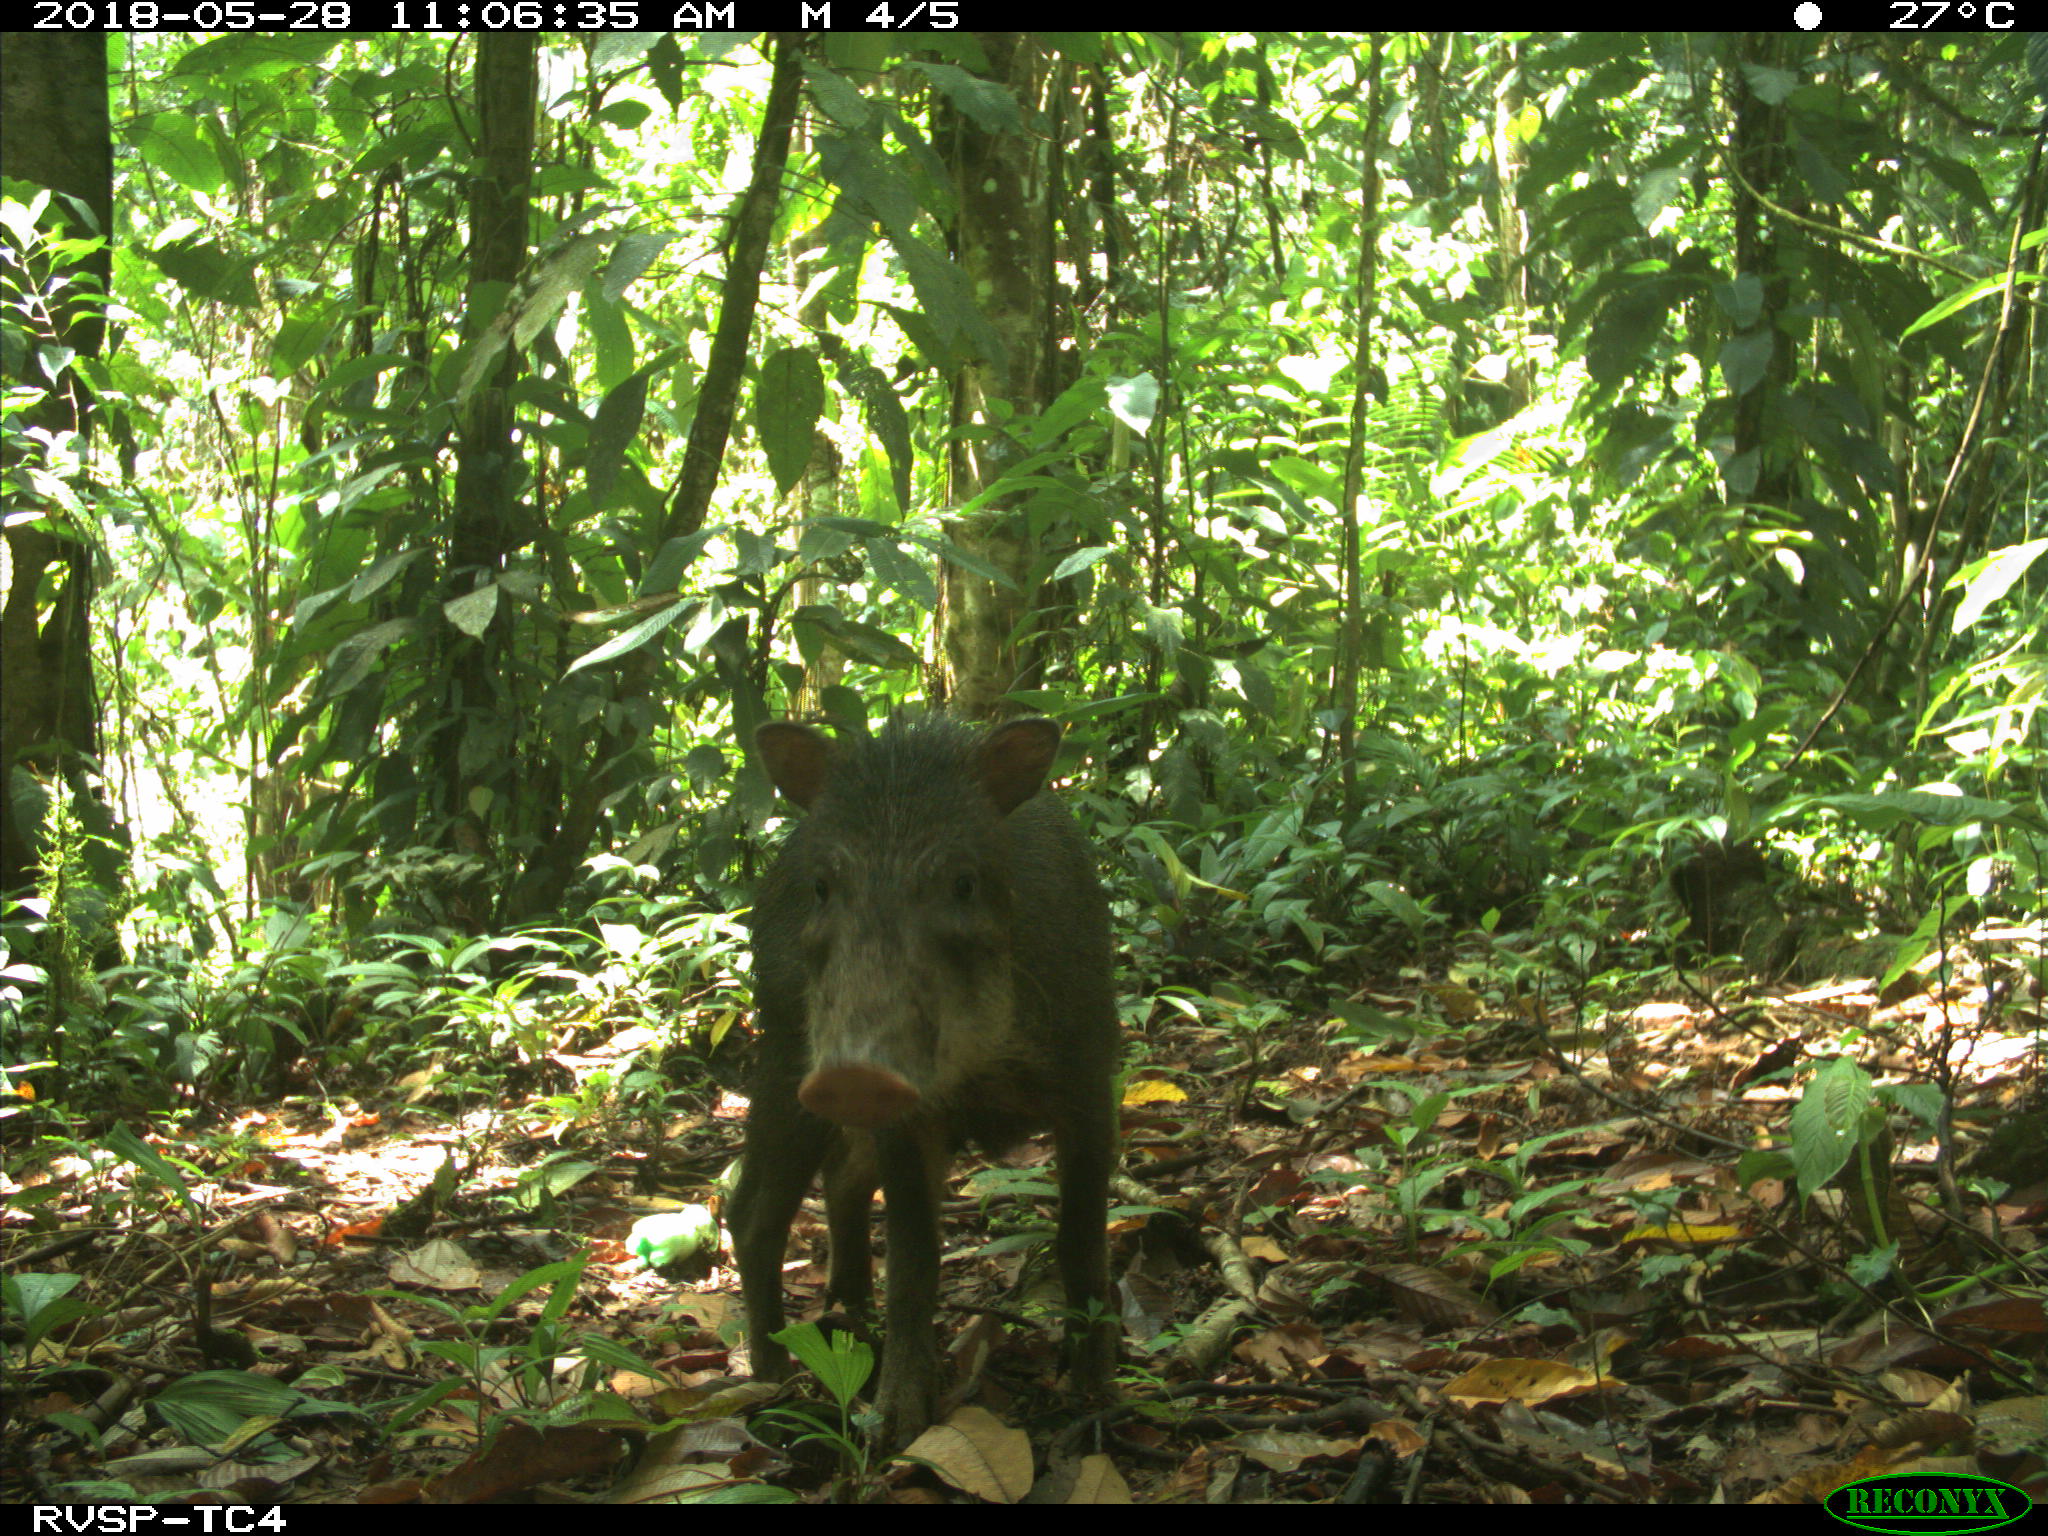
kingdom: Animalia
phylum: Chordata
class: Mammalia
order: Artiodactyla
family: Tayassuidae
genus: Tayassu
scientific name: Tayassu pecari
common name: White-lipped peccary
